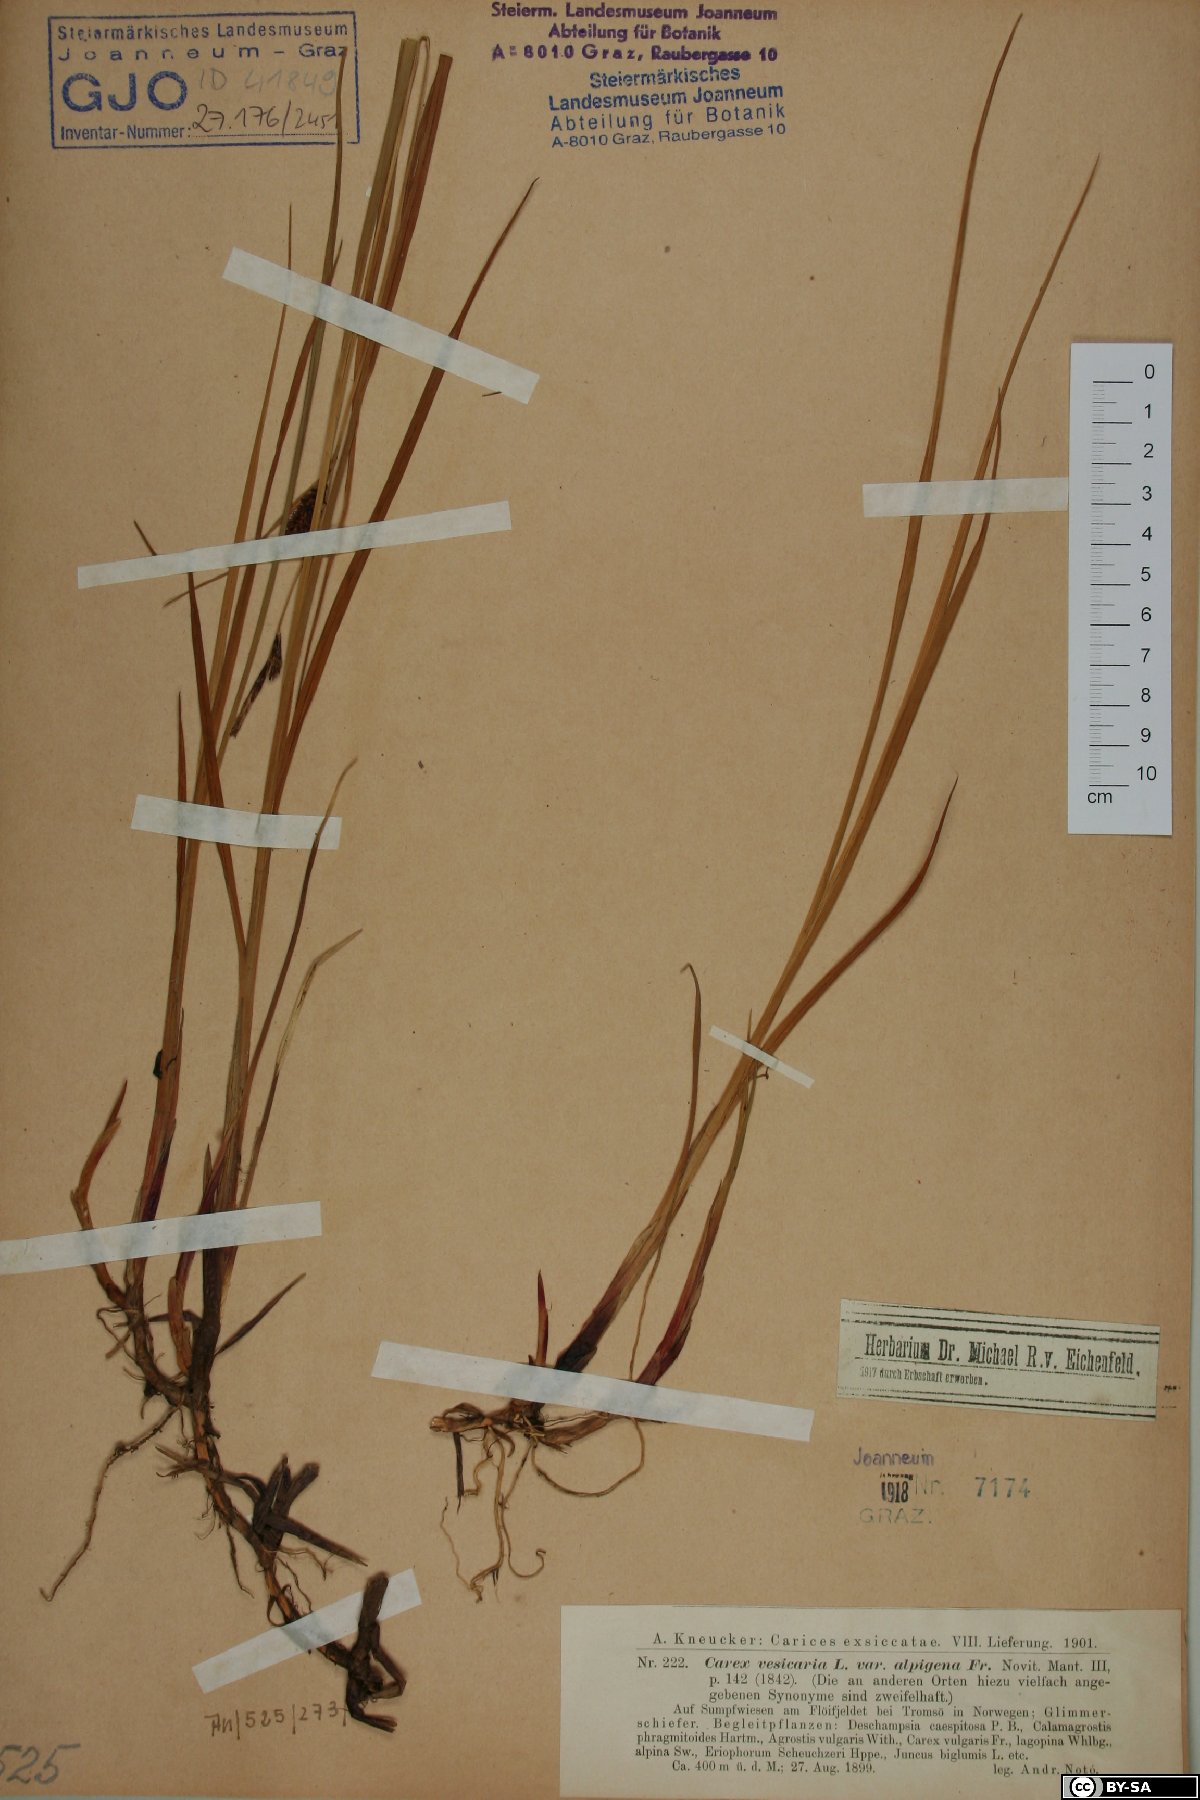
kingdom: Plantae
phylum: Tracheophyta
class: Liliopsida
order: Poales
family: Cyperaceae
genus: Carex
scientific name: Carex vesicaria
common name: Bladder-sedge
